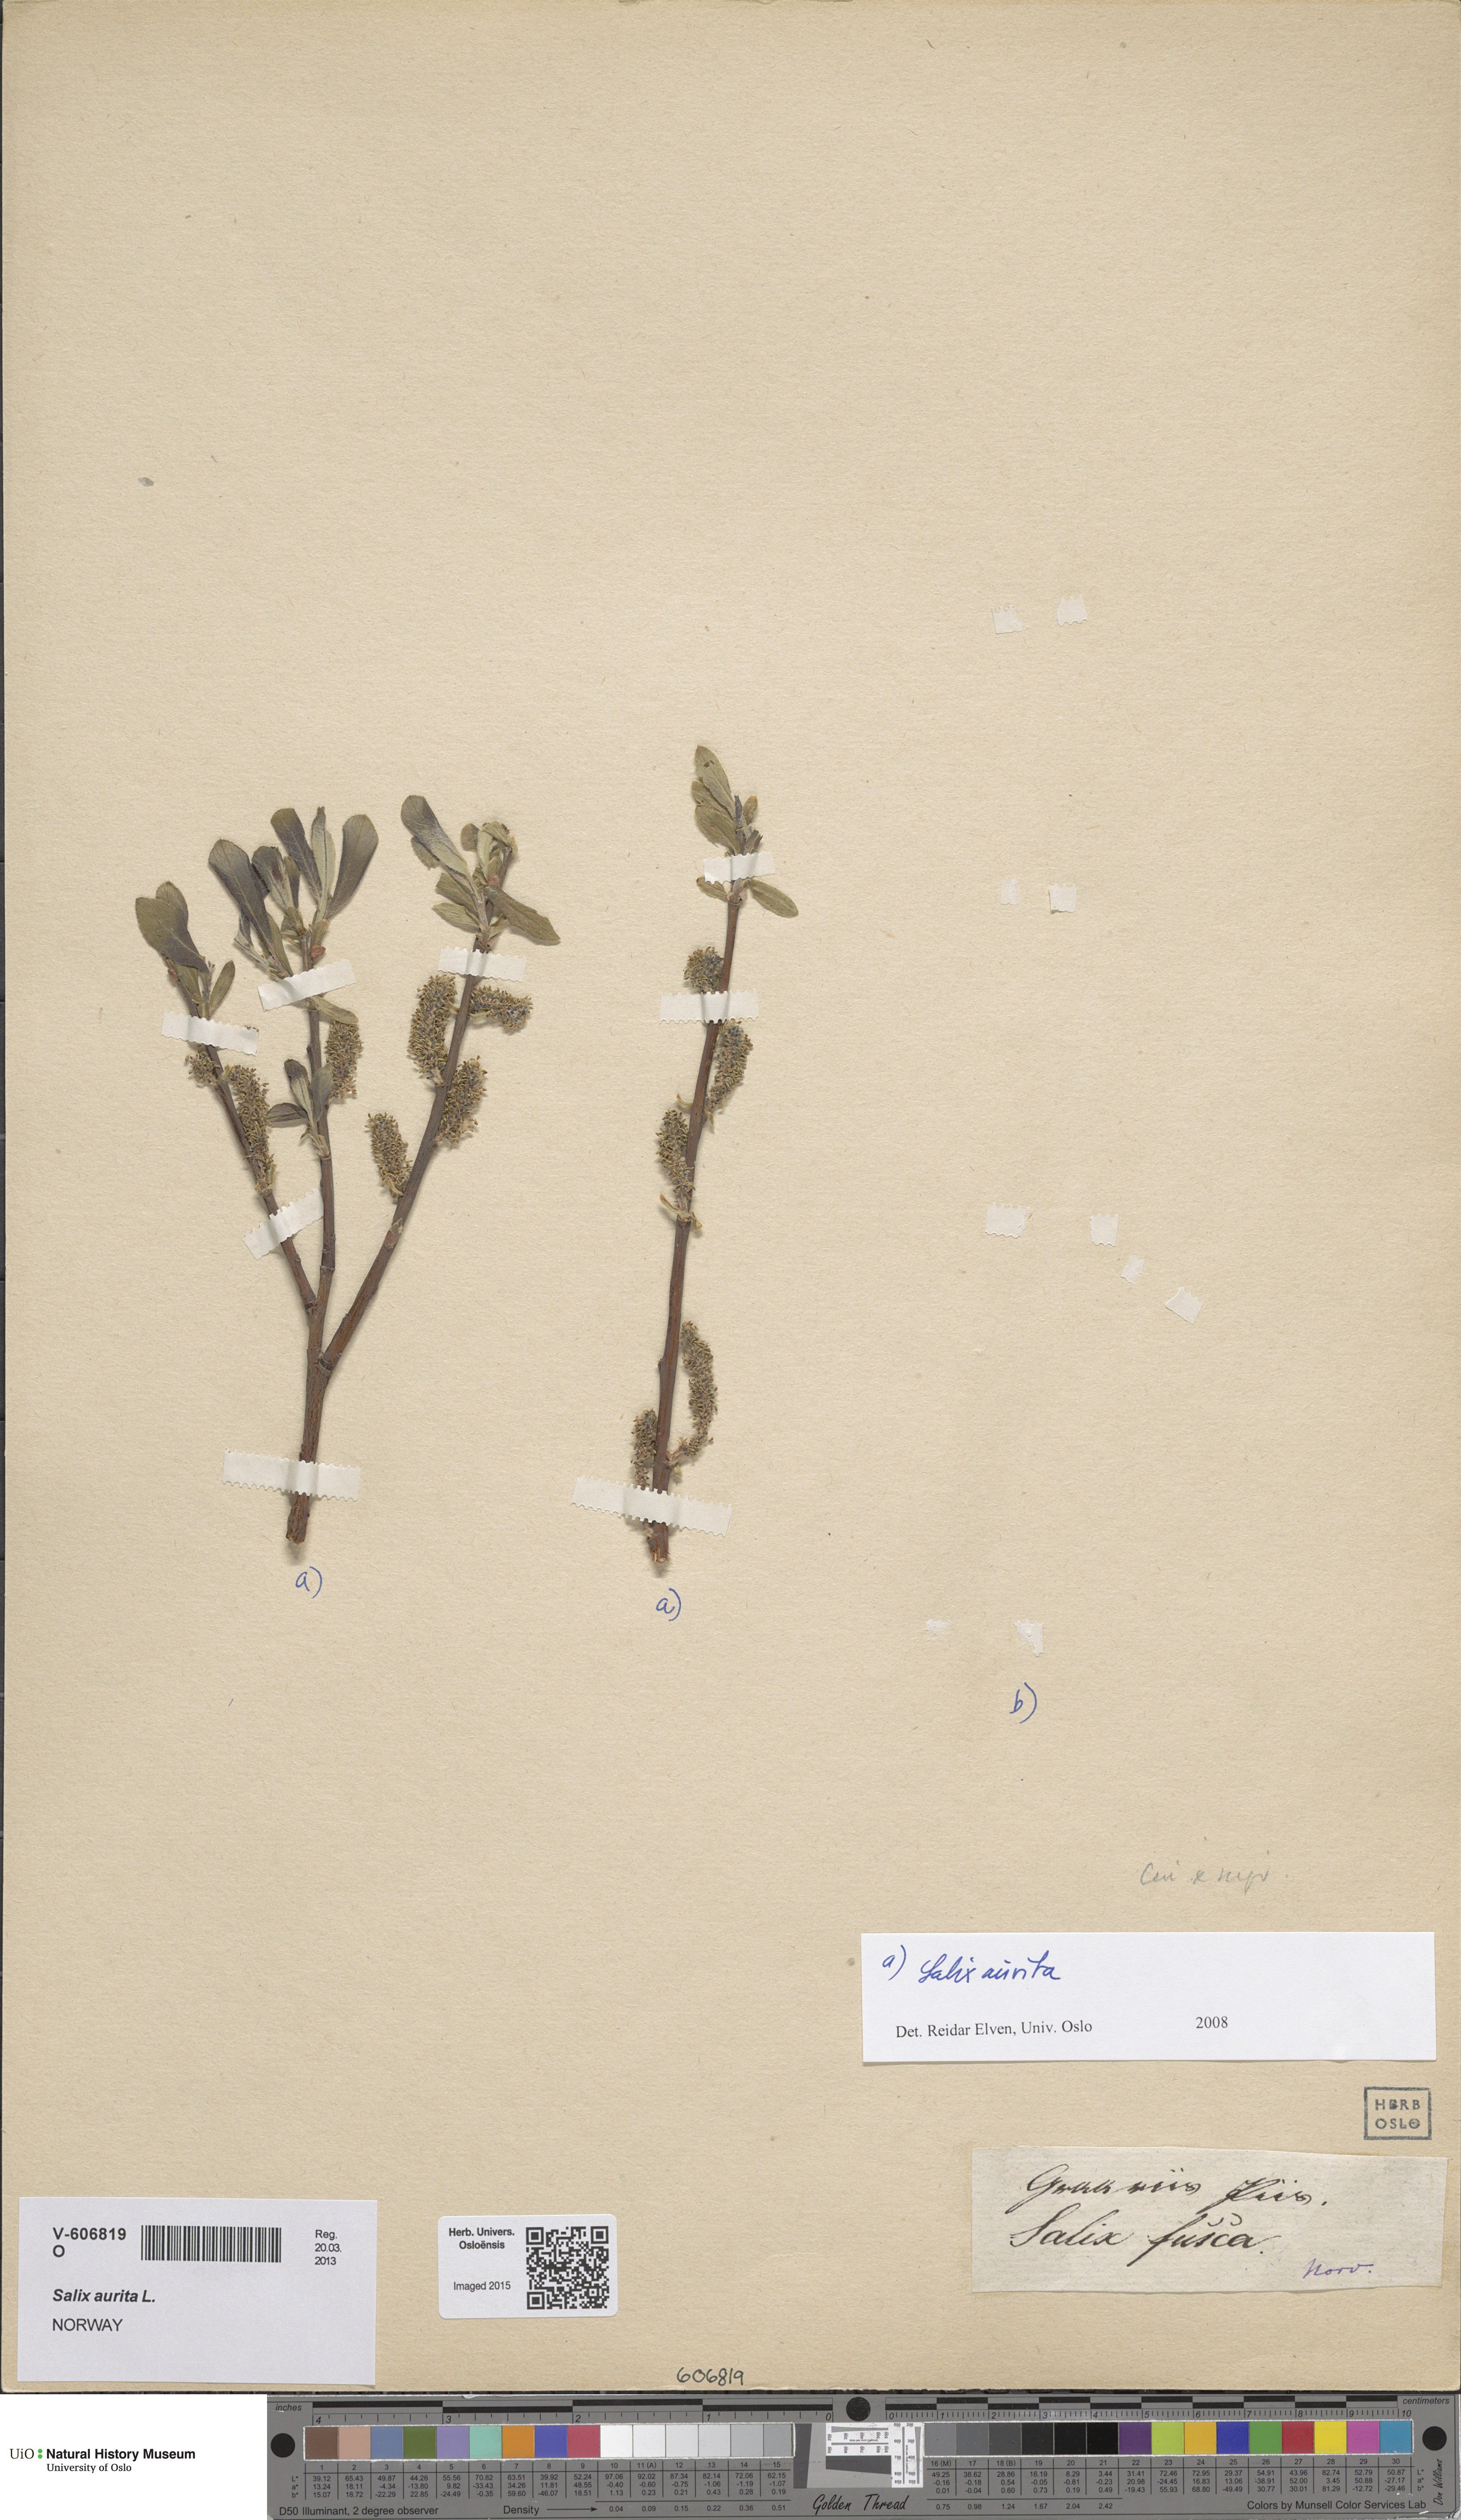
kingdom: Plantae
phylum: Tracheophyta
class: Magnoliopsida
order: Malpighiales
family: Salicaceae
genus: Salix
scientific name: Salix aurita
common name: Eared willow
